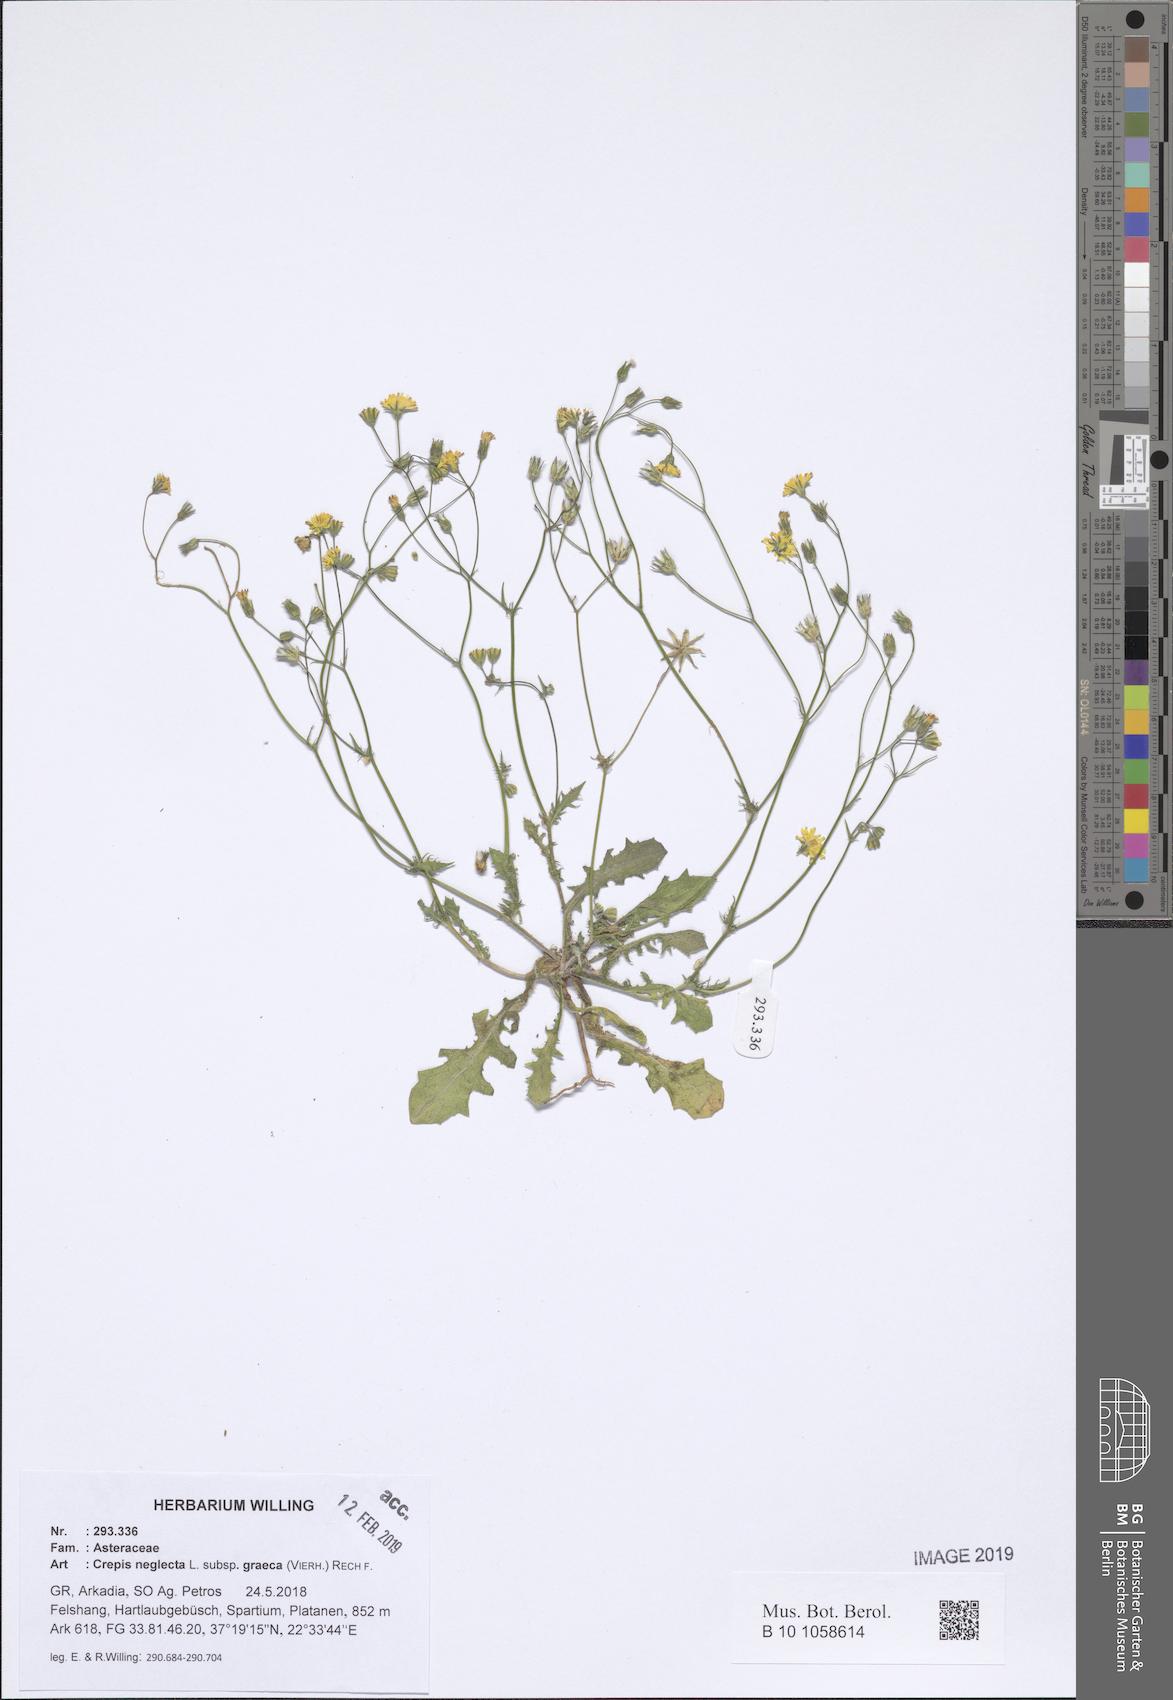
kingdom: Plantae
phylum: Tracheophyta
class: Magnoliopsida
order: Asterales
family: Asteraceae
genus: Crepis
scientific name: Crepis neglecta
